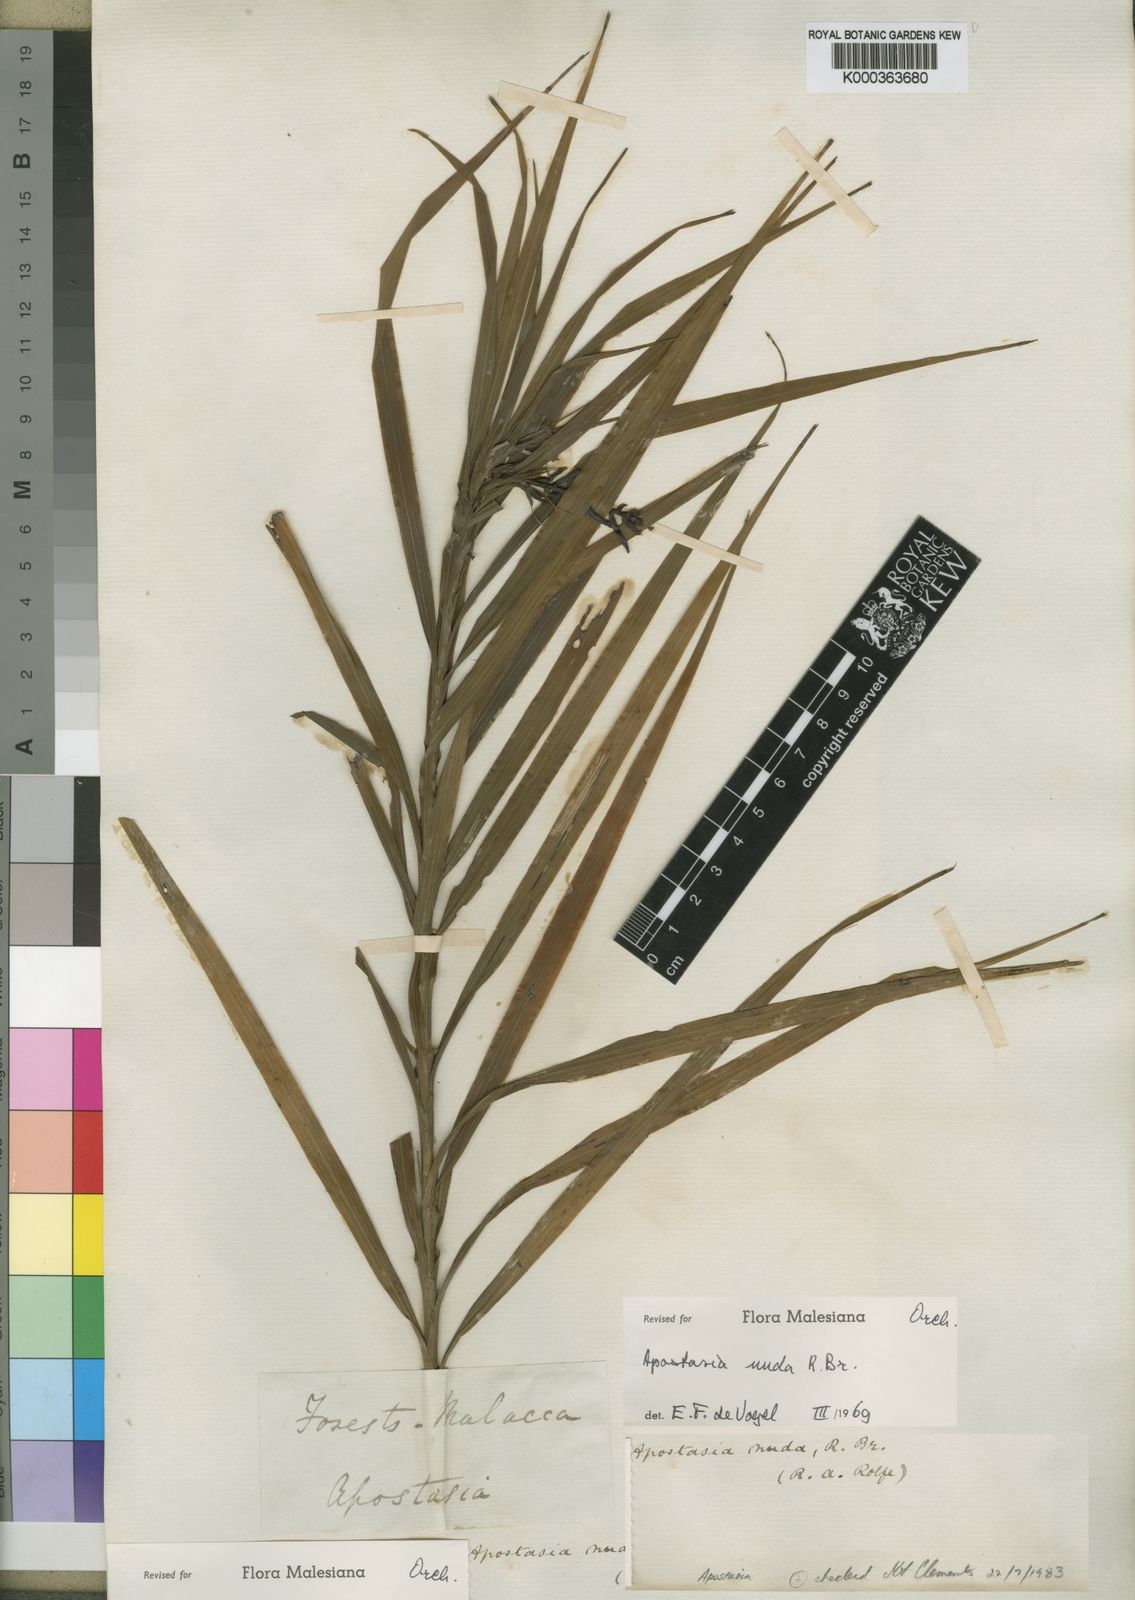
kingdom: Plantae
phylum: Tracheophyta
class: Liliopsida
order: Asparagales
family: Orchidaceae
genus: Apostasia
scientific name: Apostasia nuda
